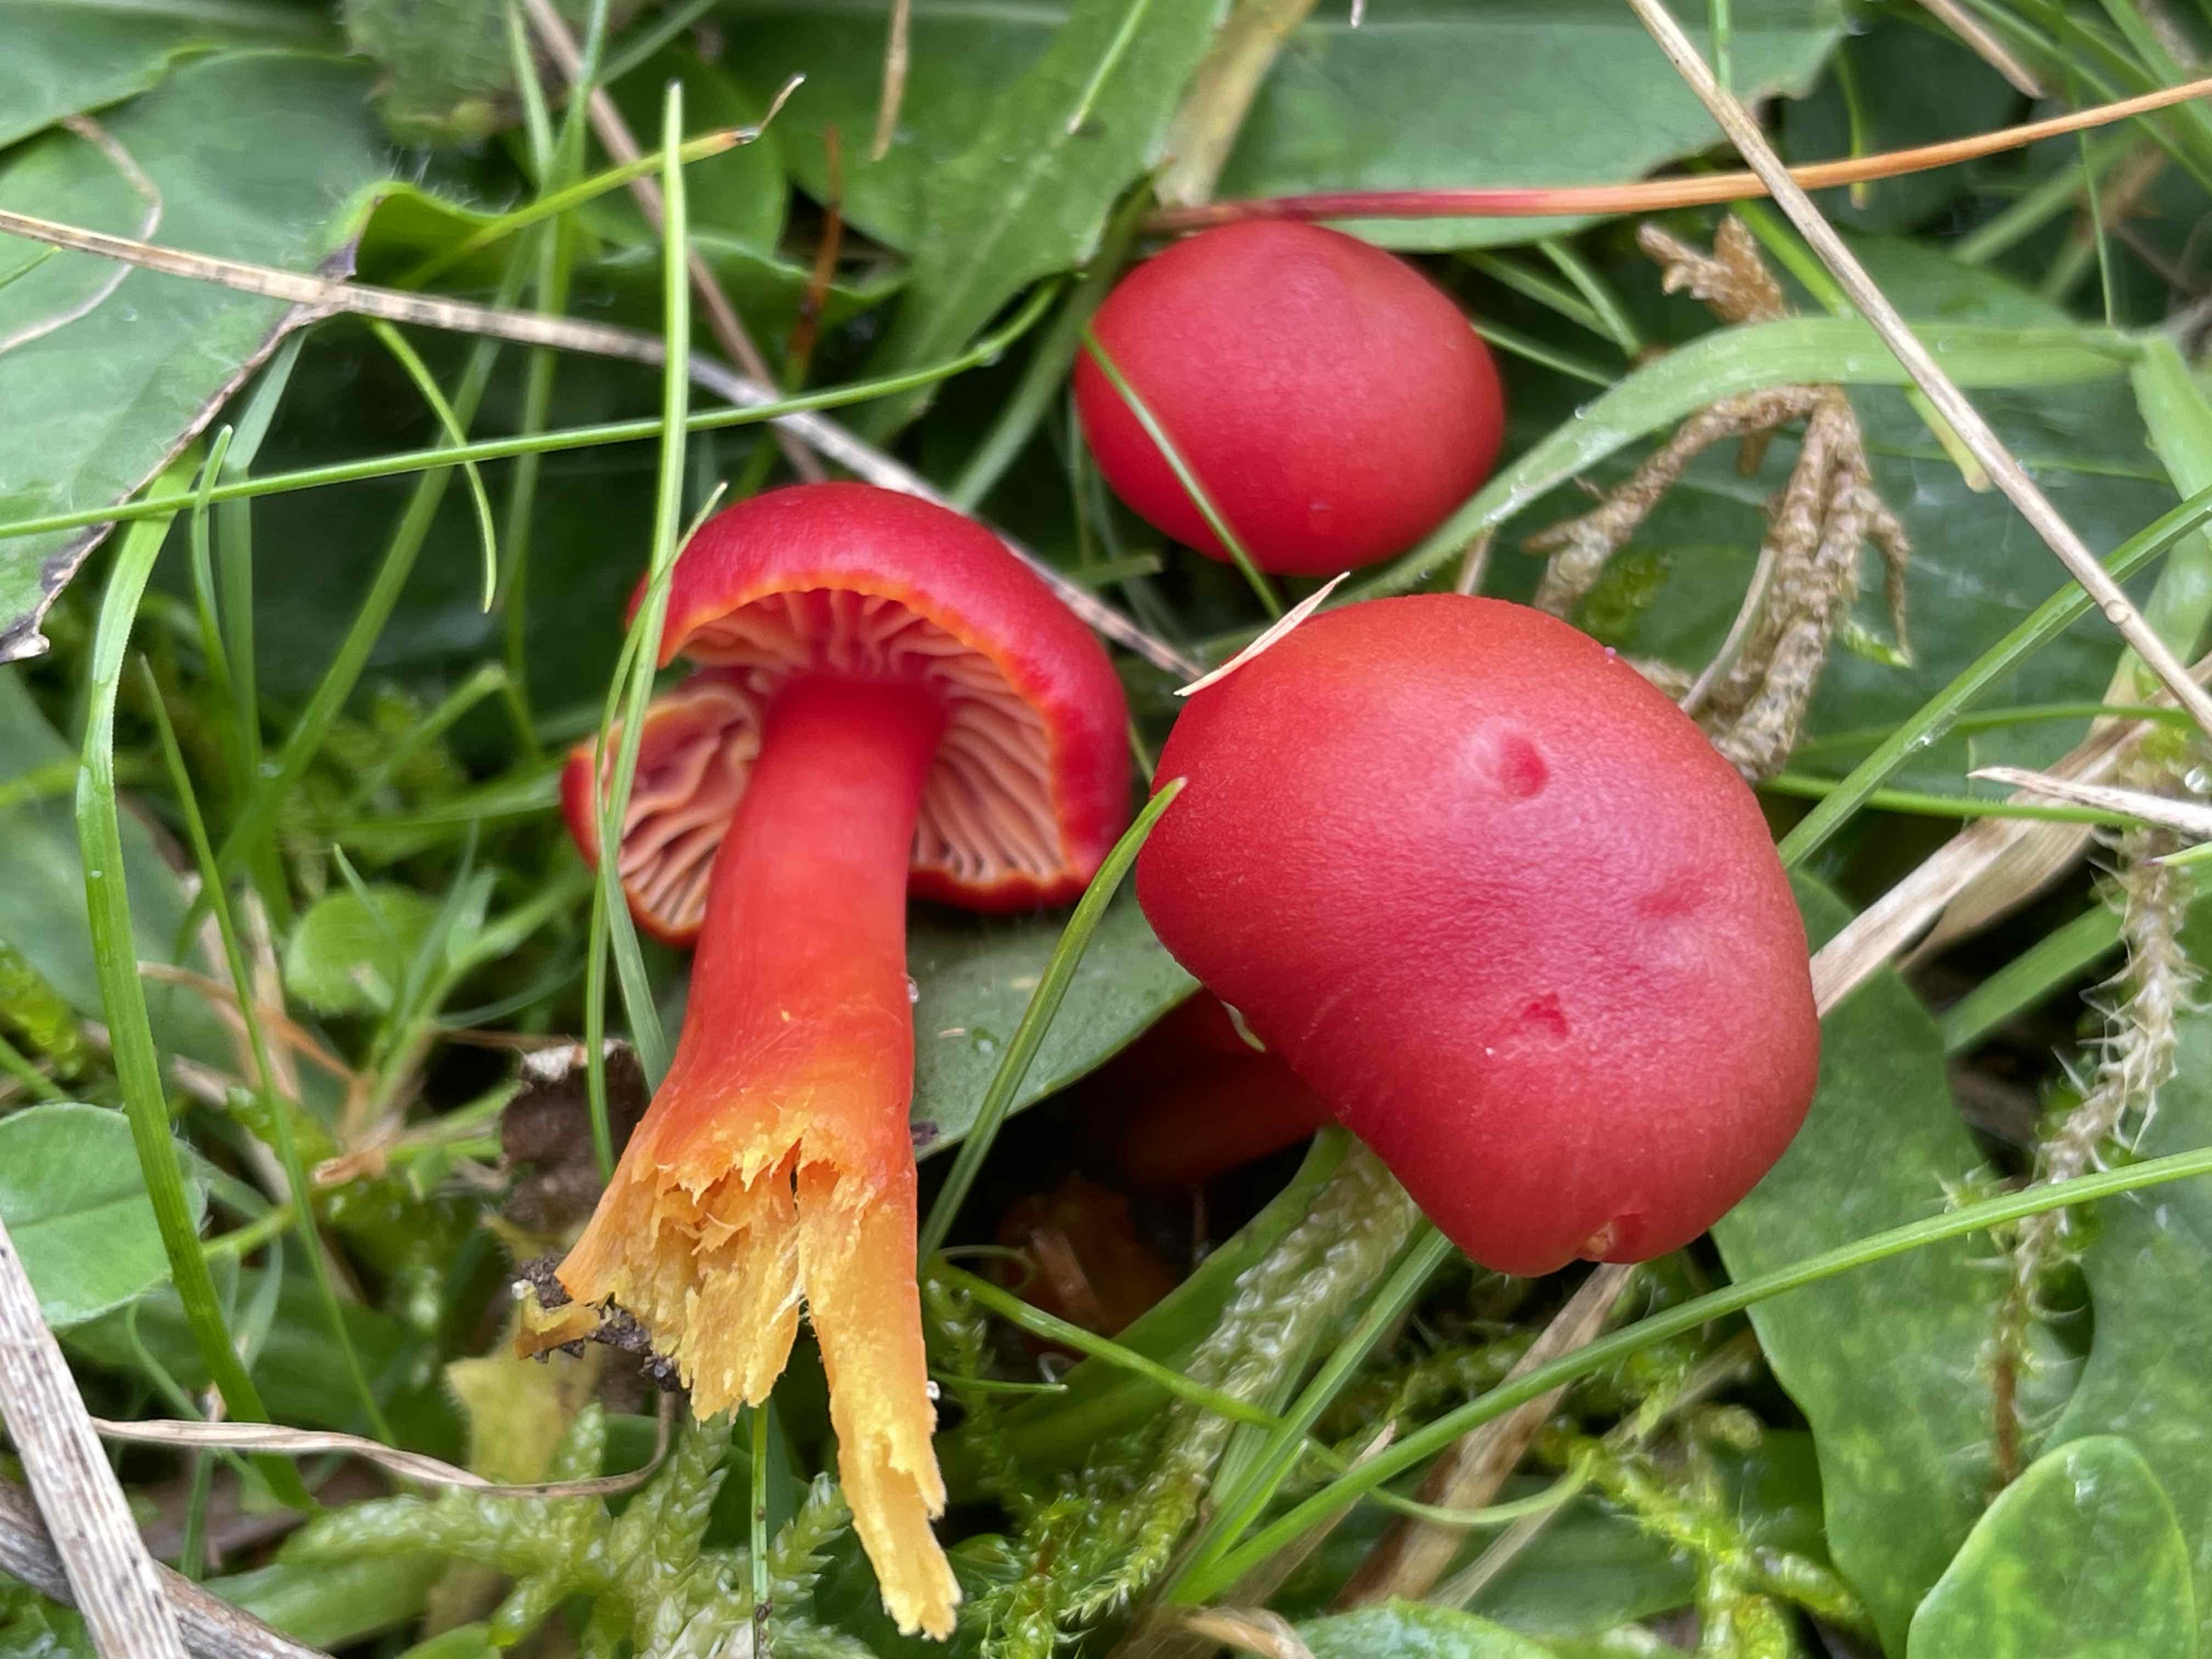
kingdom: Fungi
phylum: Basidiomycota
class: Agaricomycetes
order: Agaricales
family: Hygrophoraceae
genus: Hygrocybe
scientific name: Hygrocybe coccinea
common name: cinnober-vokshat
